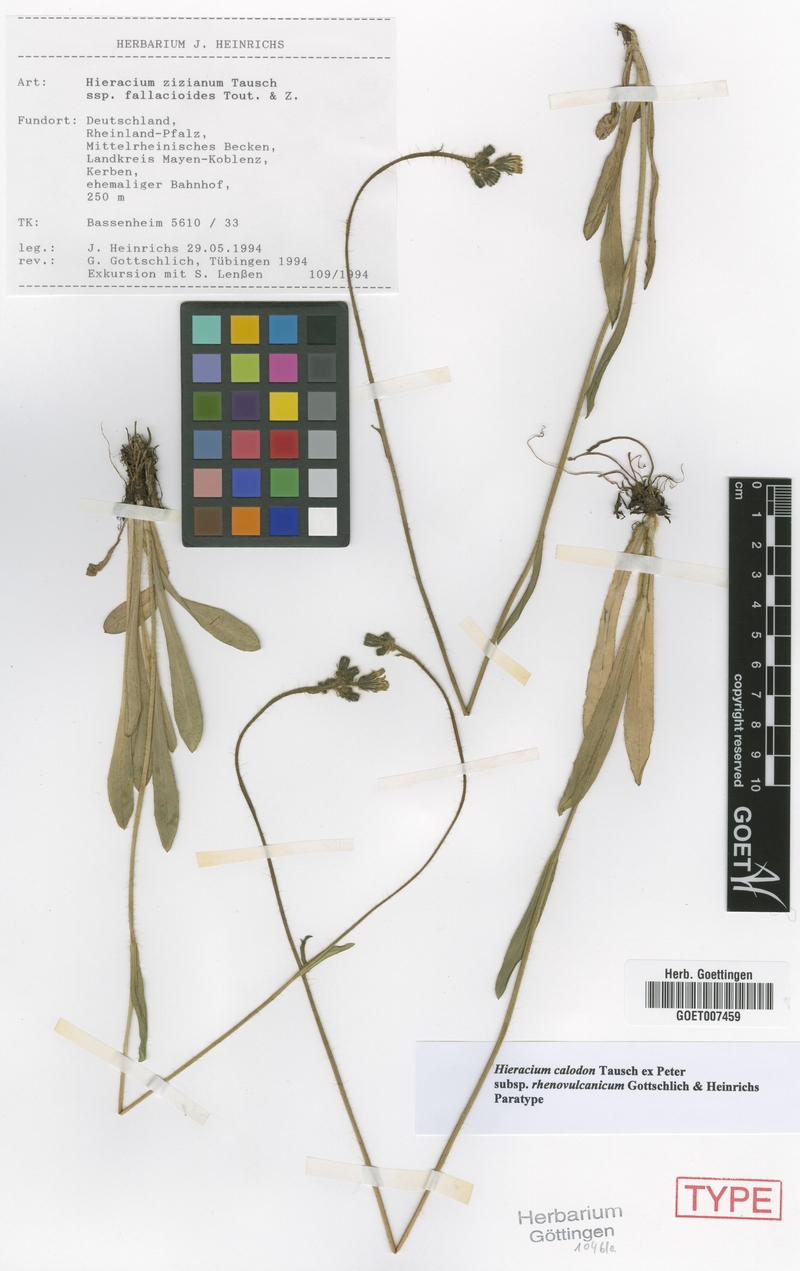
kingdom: Plantae
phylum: Tracheophyta
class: Magnoliopsida
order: Asterales
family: Asteraceae
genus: Pilosella
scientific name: Pilosella calodon
